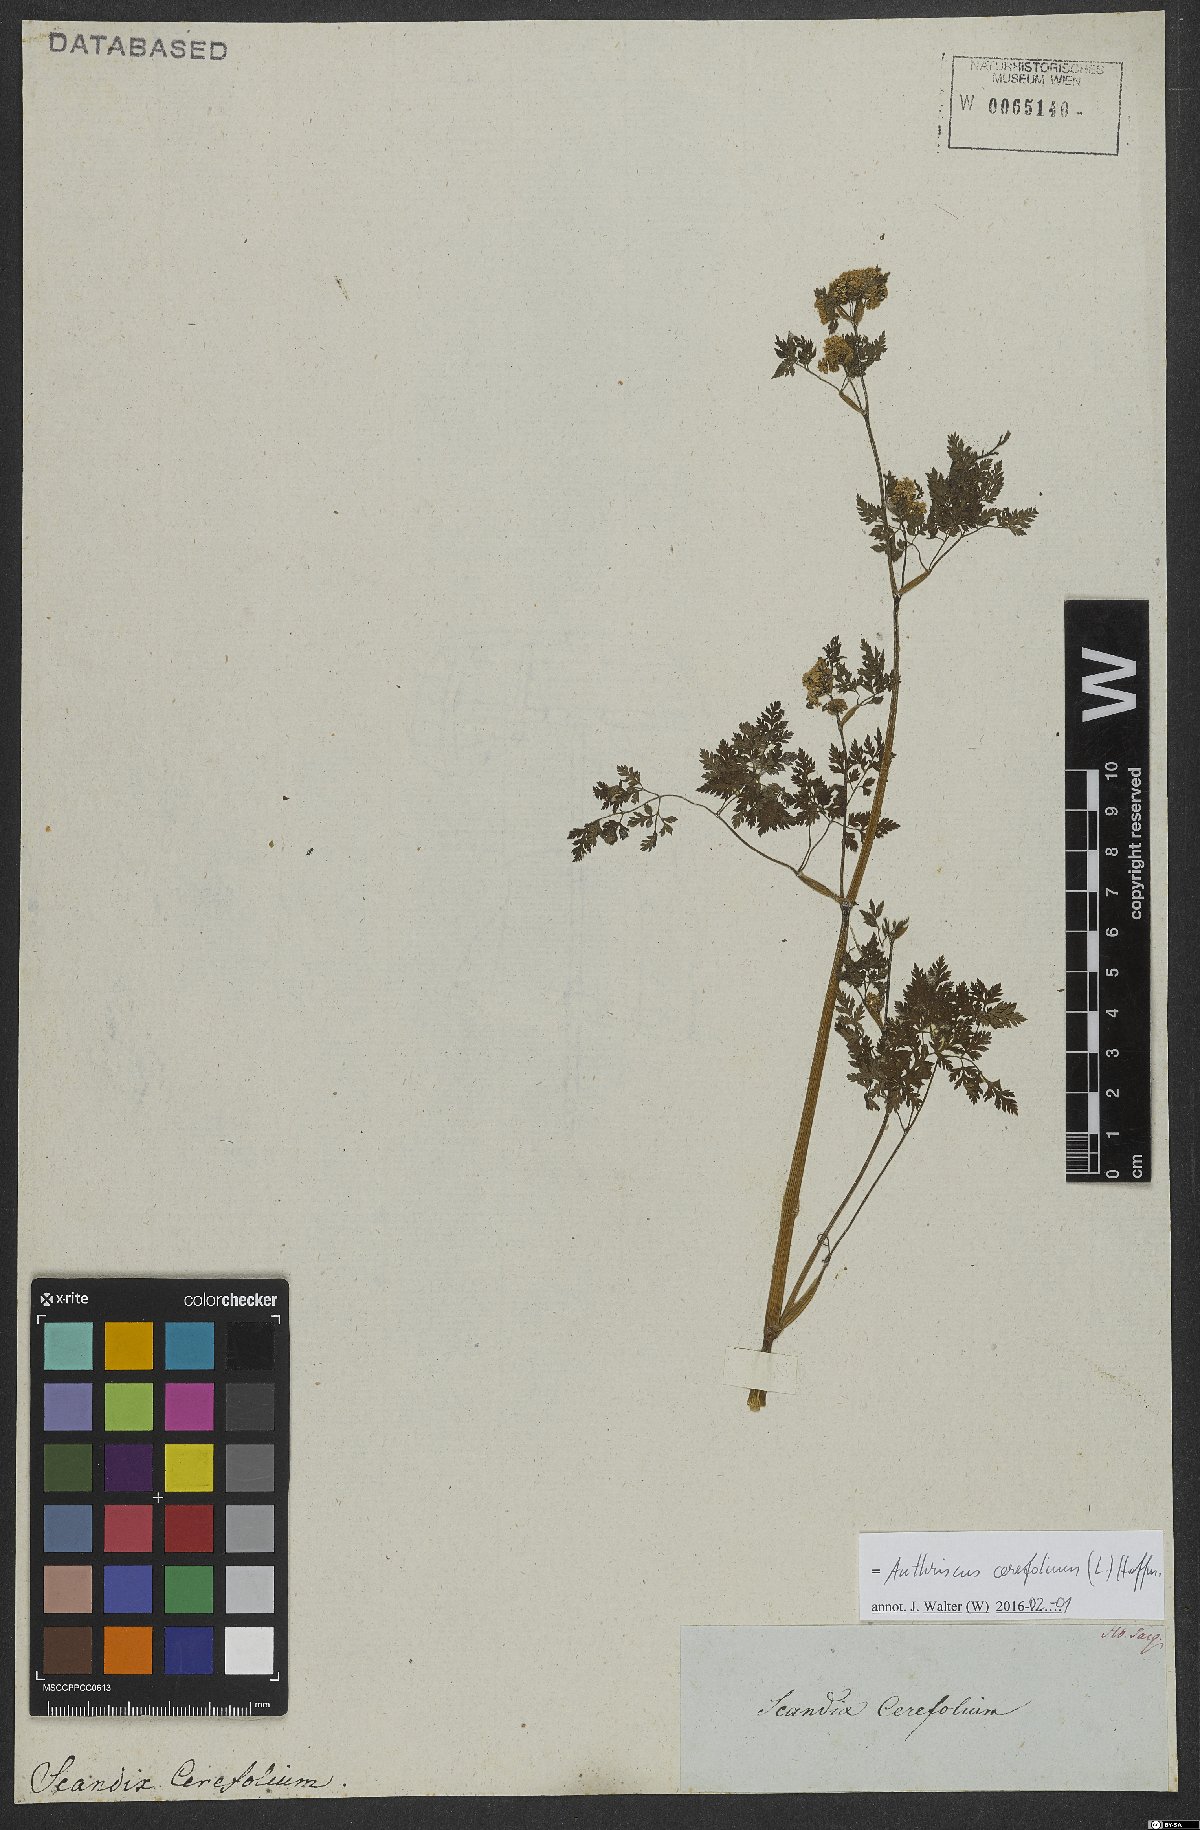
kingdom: Plantae
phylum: Tracheophyta
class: Magnoliopsida
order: Apiales
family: Apiaceae
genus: Anthriscus
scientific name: Anthriscus cerefolium
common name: Garden chervil
